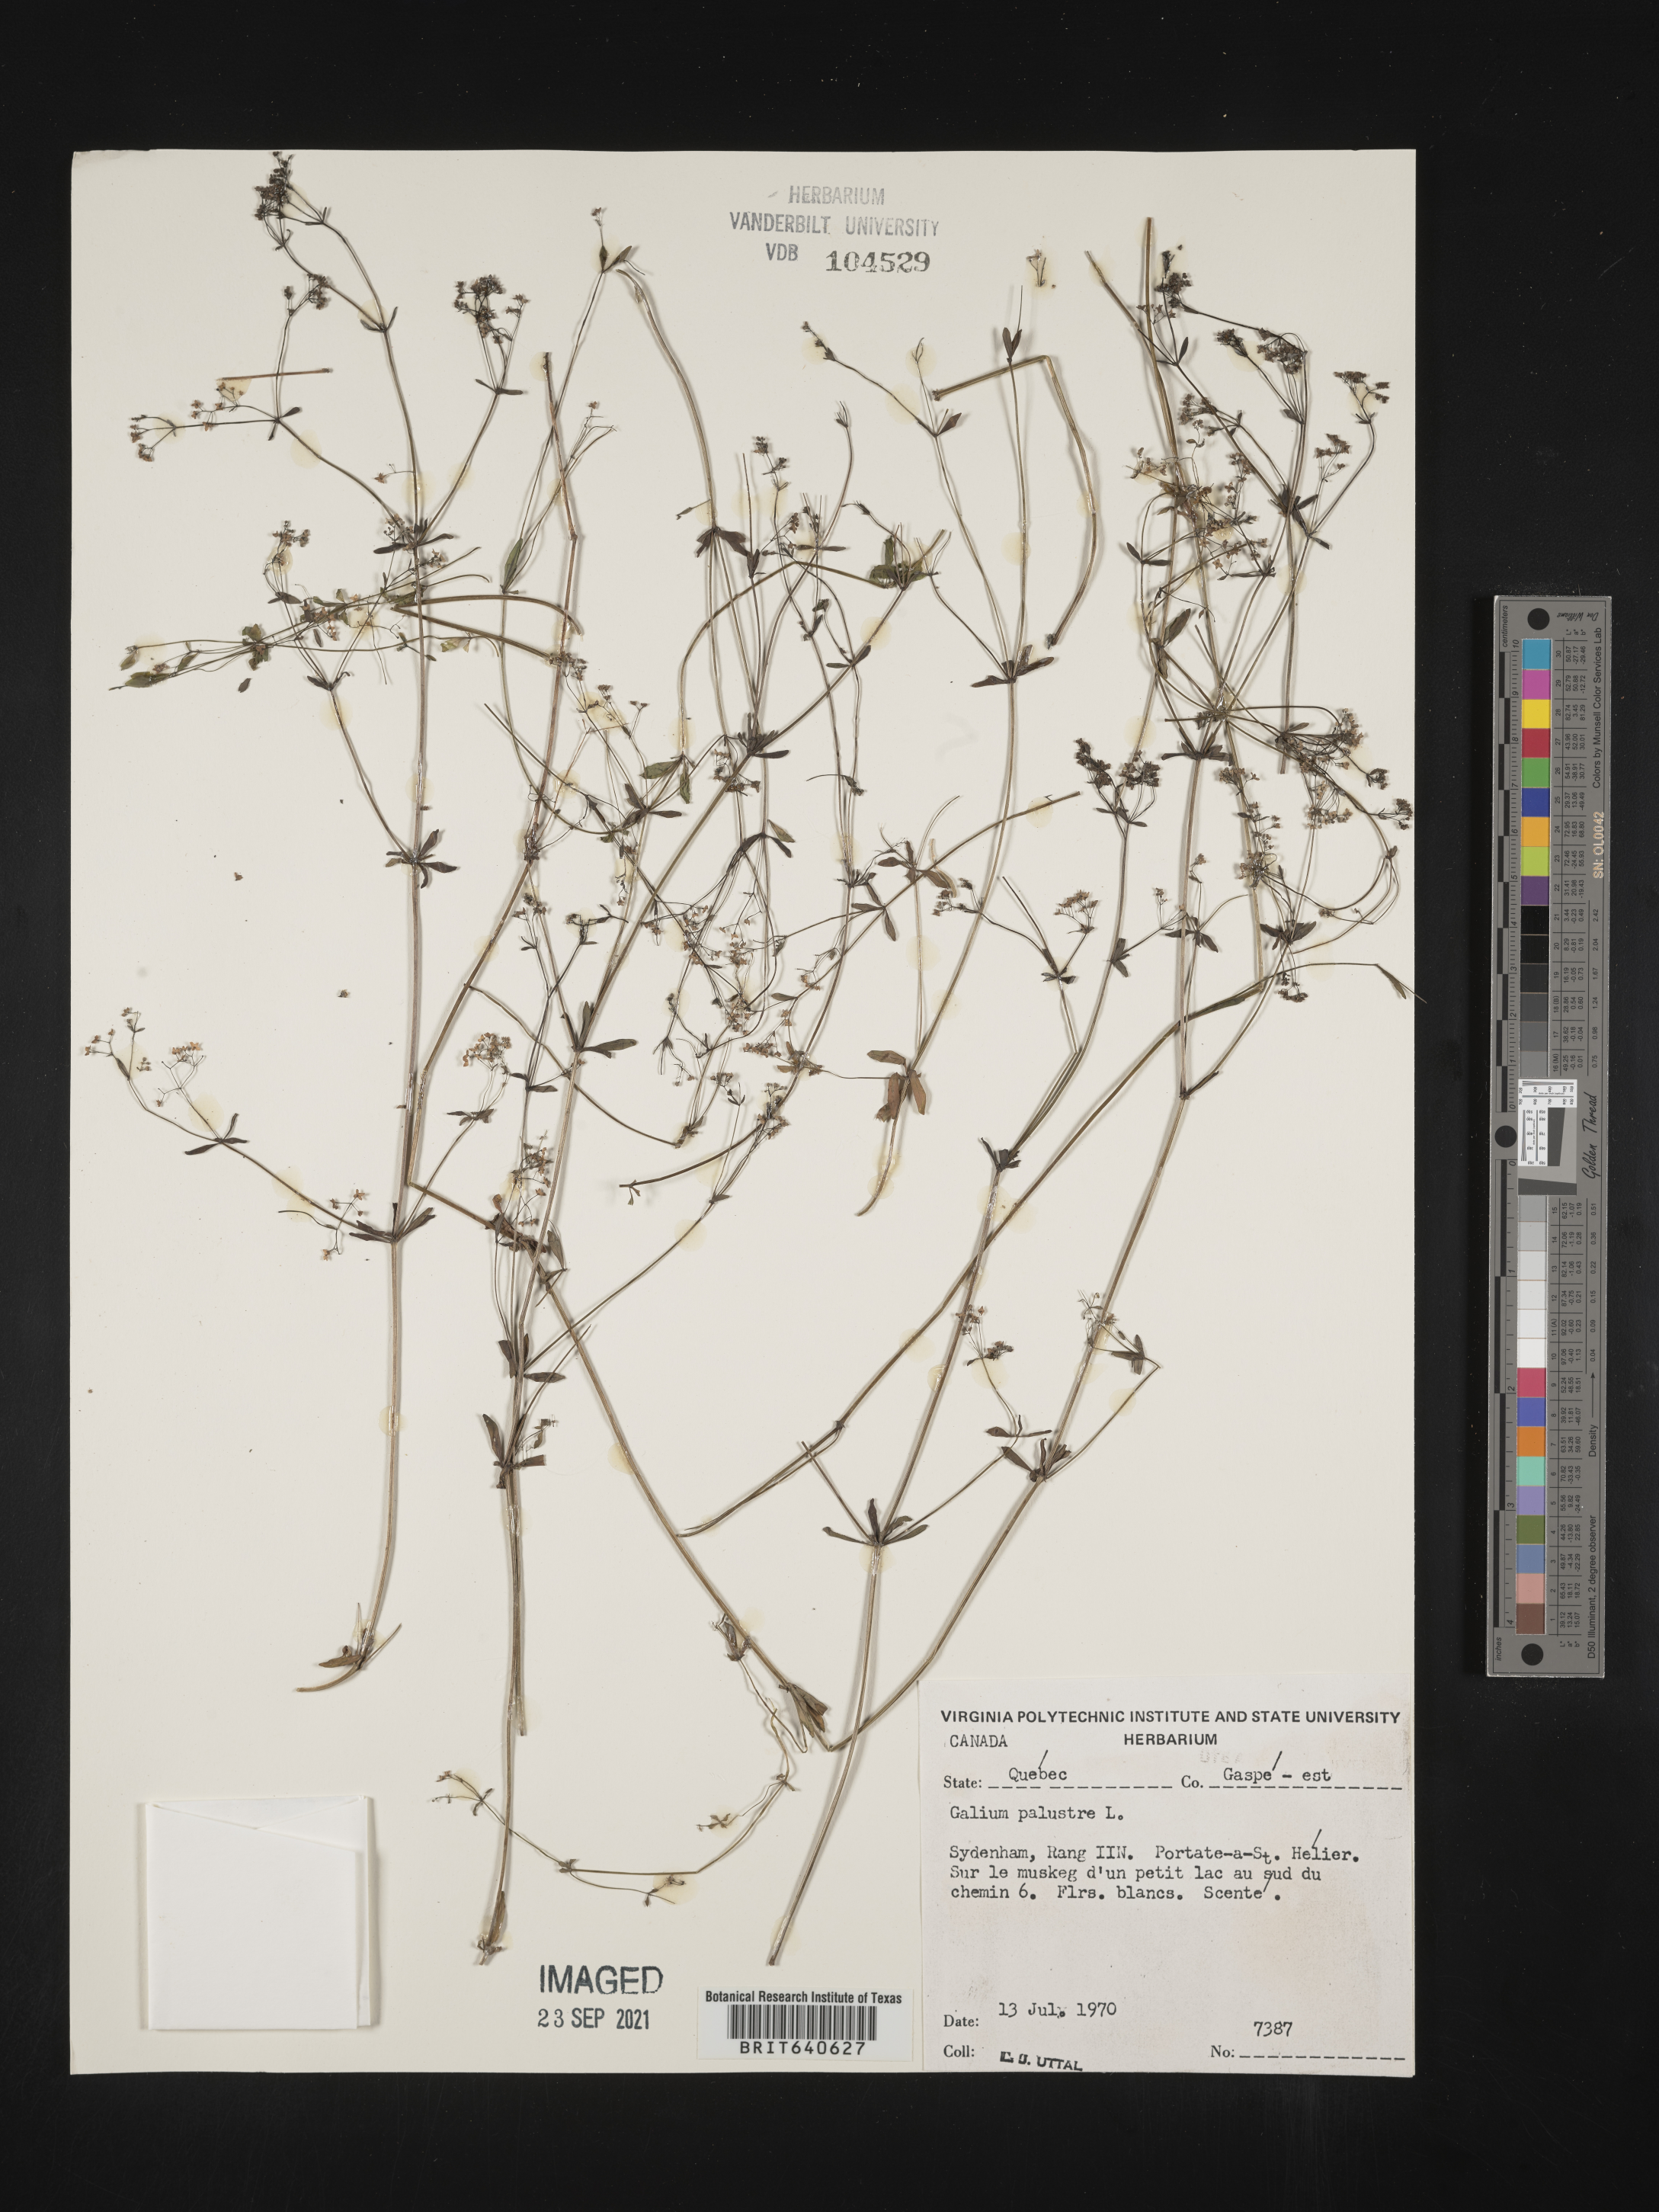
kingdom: Plantae
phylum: Tracheophyta
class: Magnoliopsida
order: Gentianales
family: Rubiaceae
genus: Galium
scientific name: Galium
